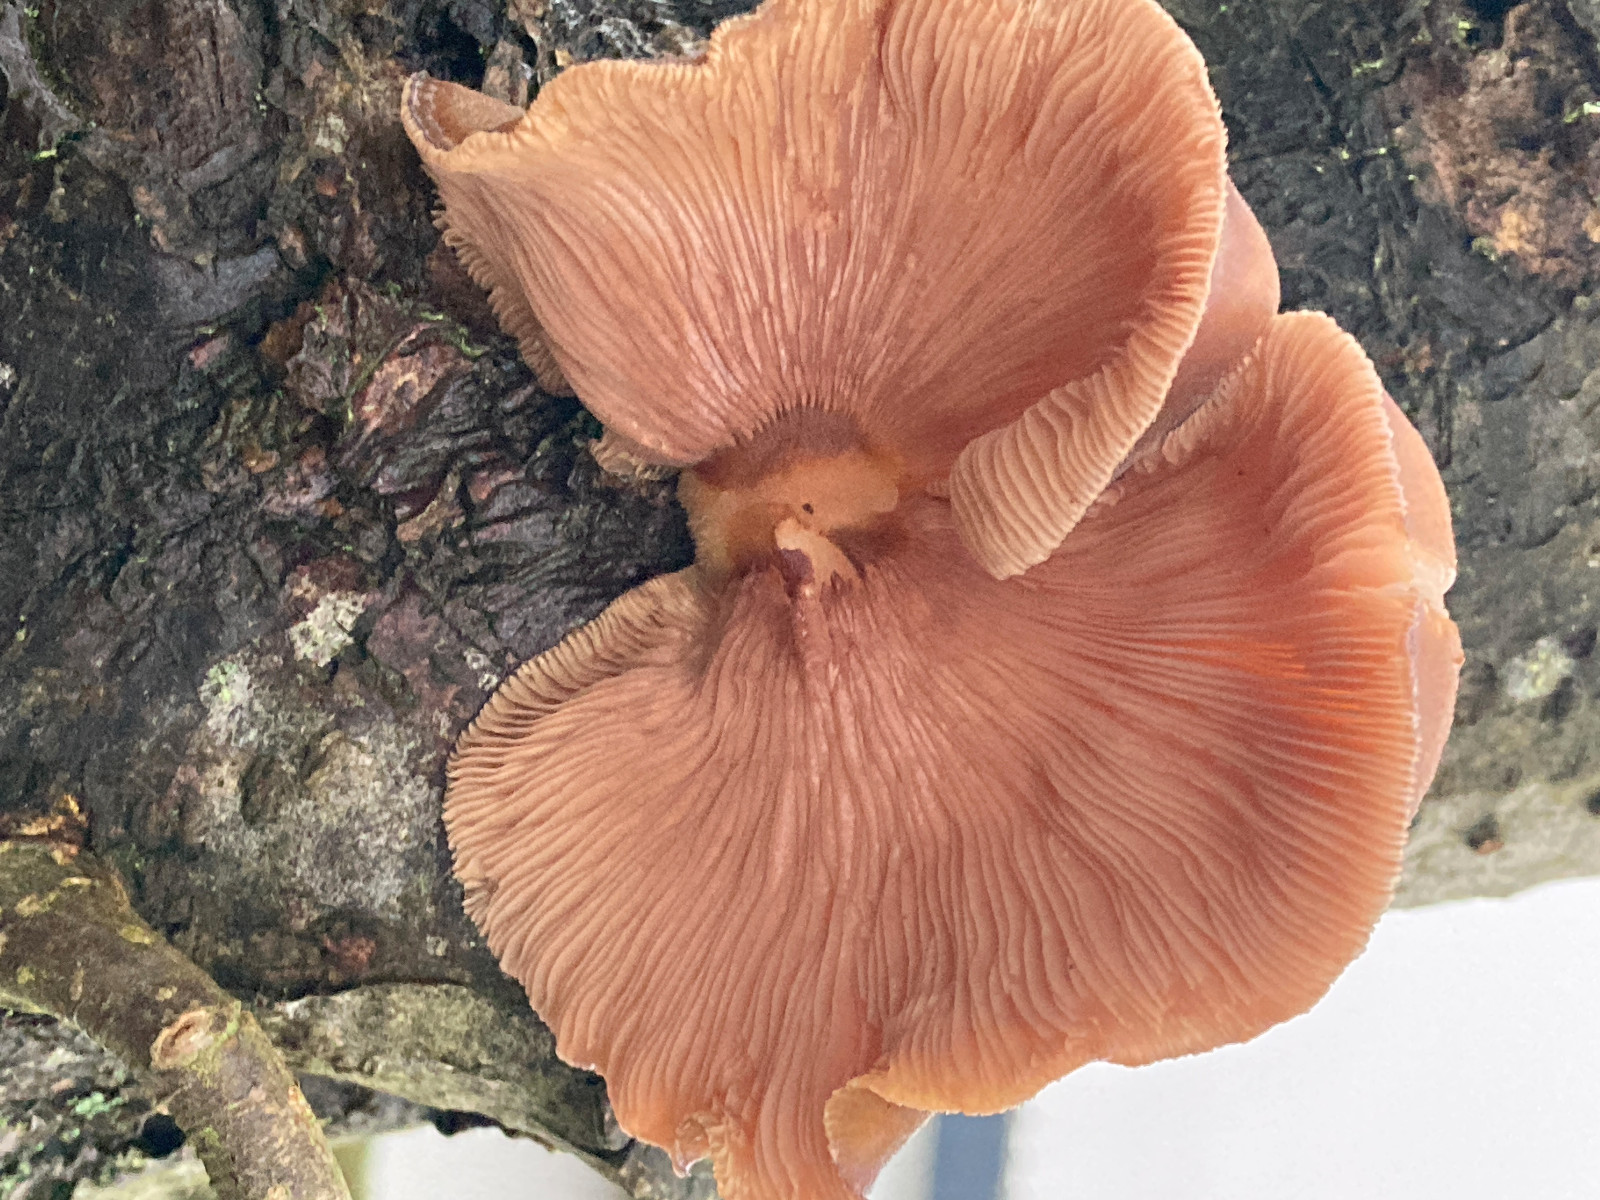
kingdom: Fungi
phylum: Basidiomycota
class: Agaricomycetes
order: Agaricales
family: Sarcomyxaceae
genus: Sarcomyxa
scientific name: Sarcomyxa serotina
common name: gummihat
